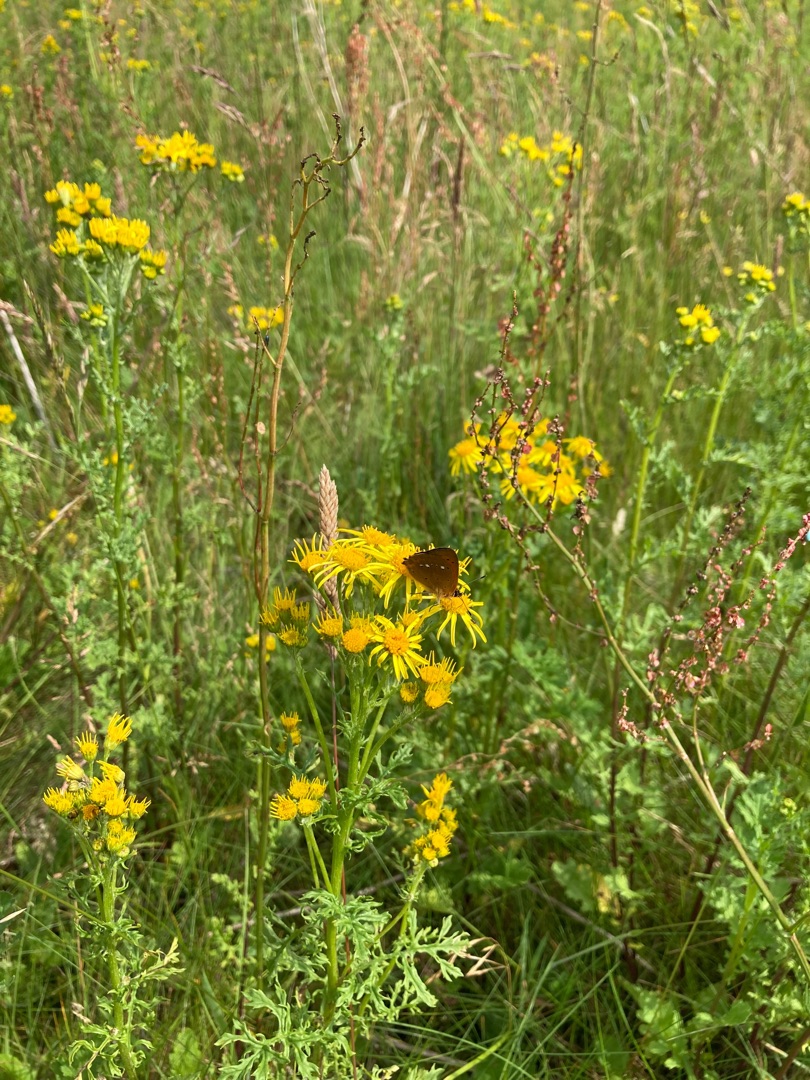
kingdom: Animalia
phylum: Arthropoda
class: Insecta
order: Lepidoptera
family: Lycaenidae
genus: Lycaena
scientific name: Lycaena virgaureae
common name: Dukatsommerfugl
